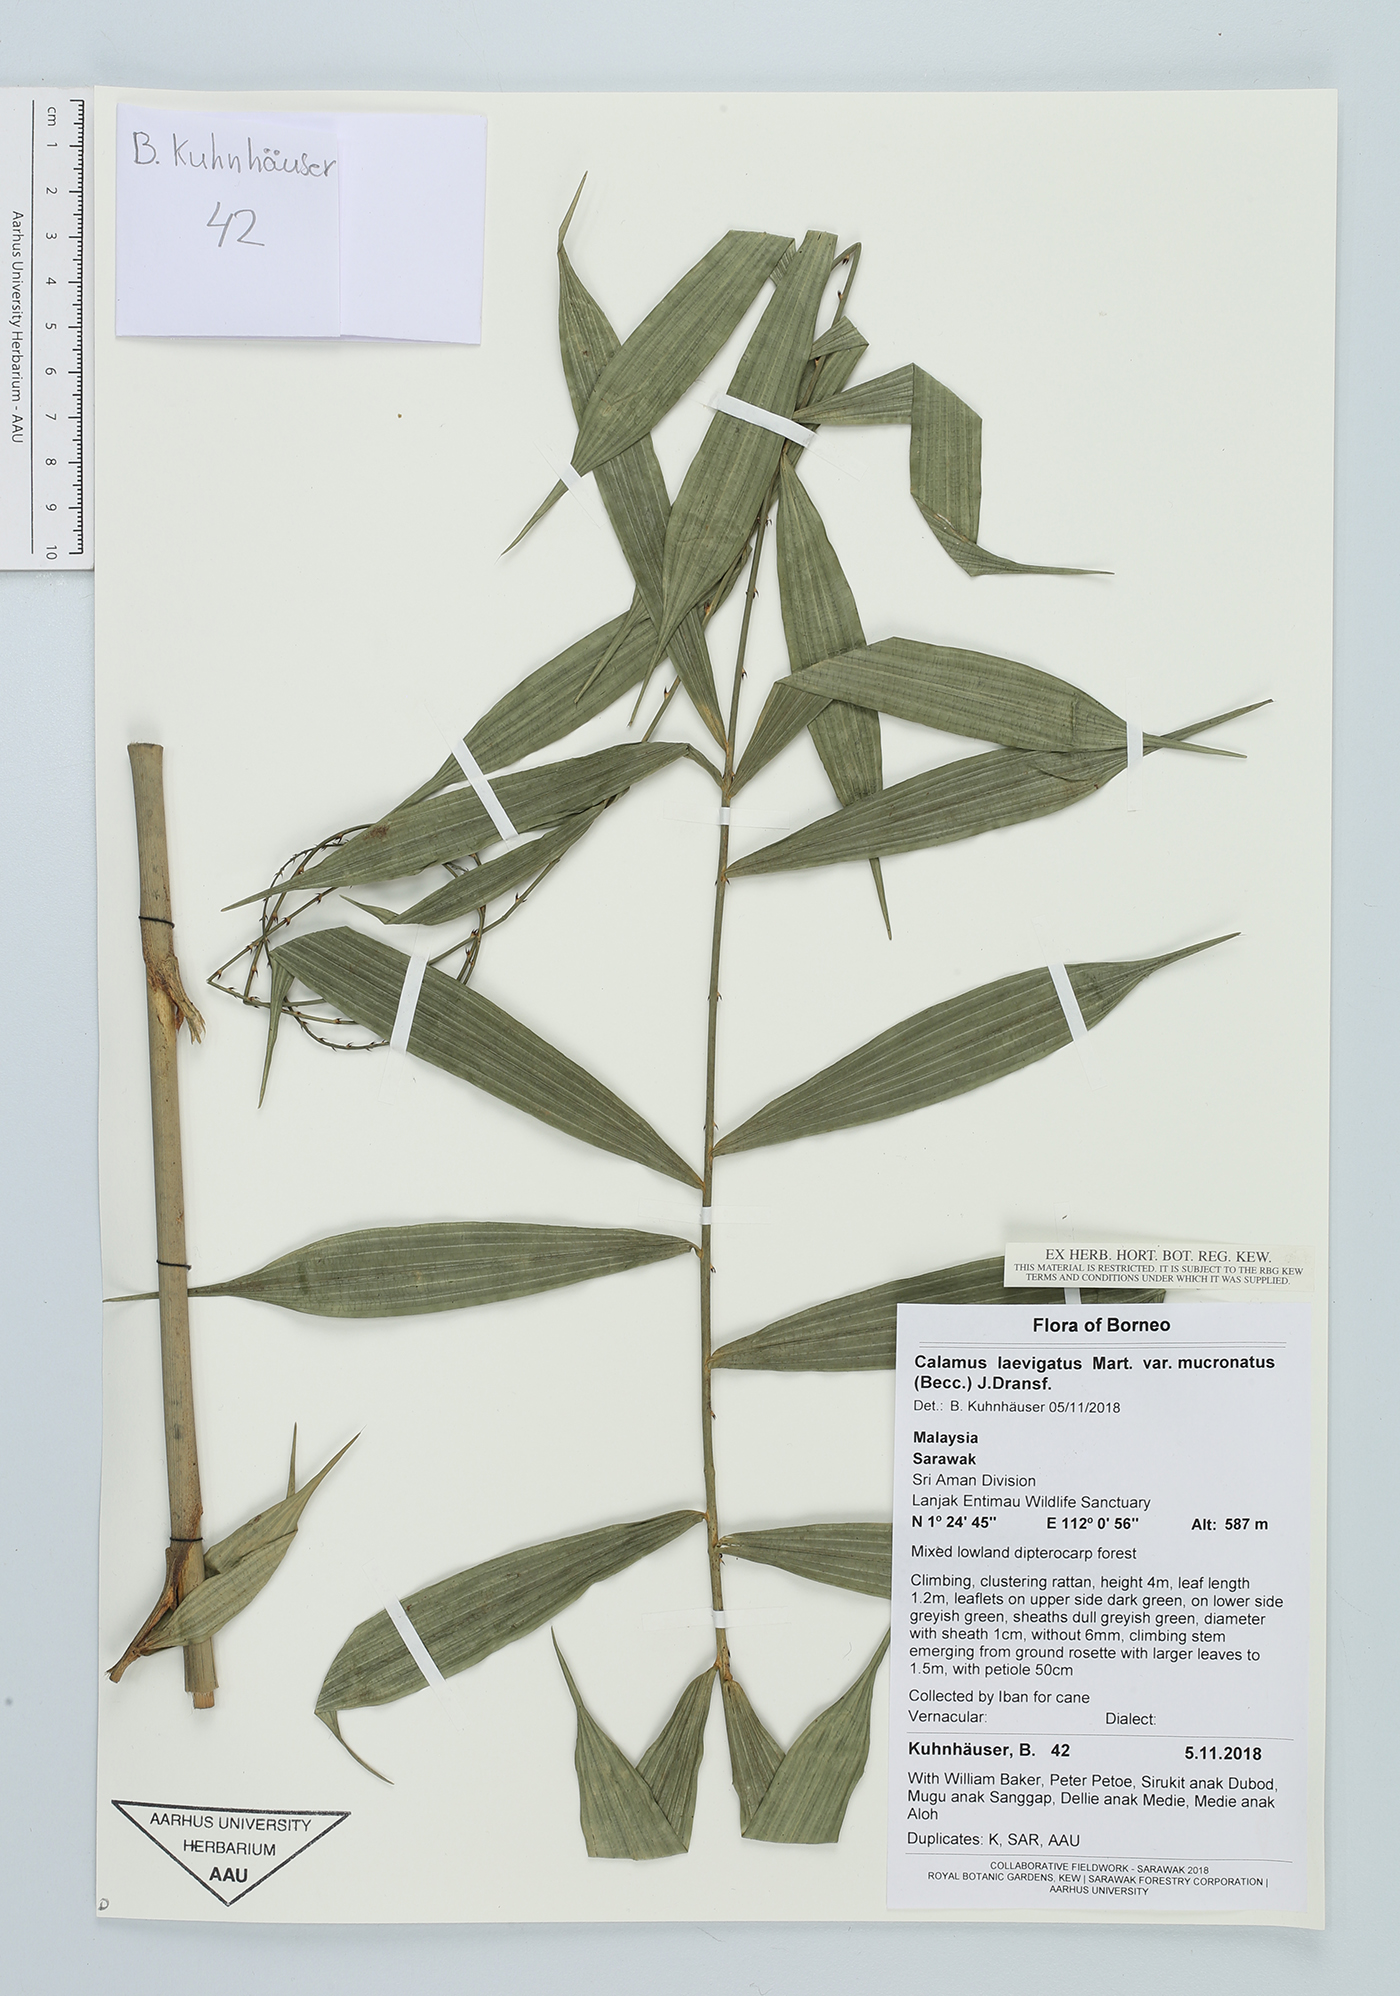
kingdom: Plantae
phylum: Tracheophyta
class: Liliopsida
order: Arecales
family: Arecaceae
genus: Calamus
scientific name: Calamus plicatus
